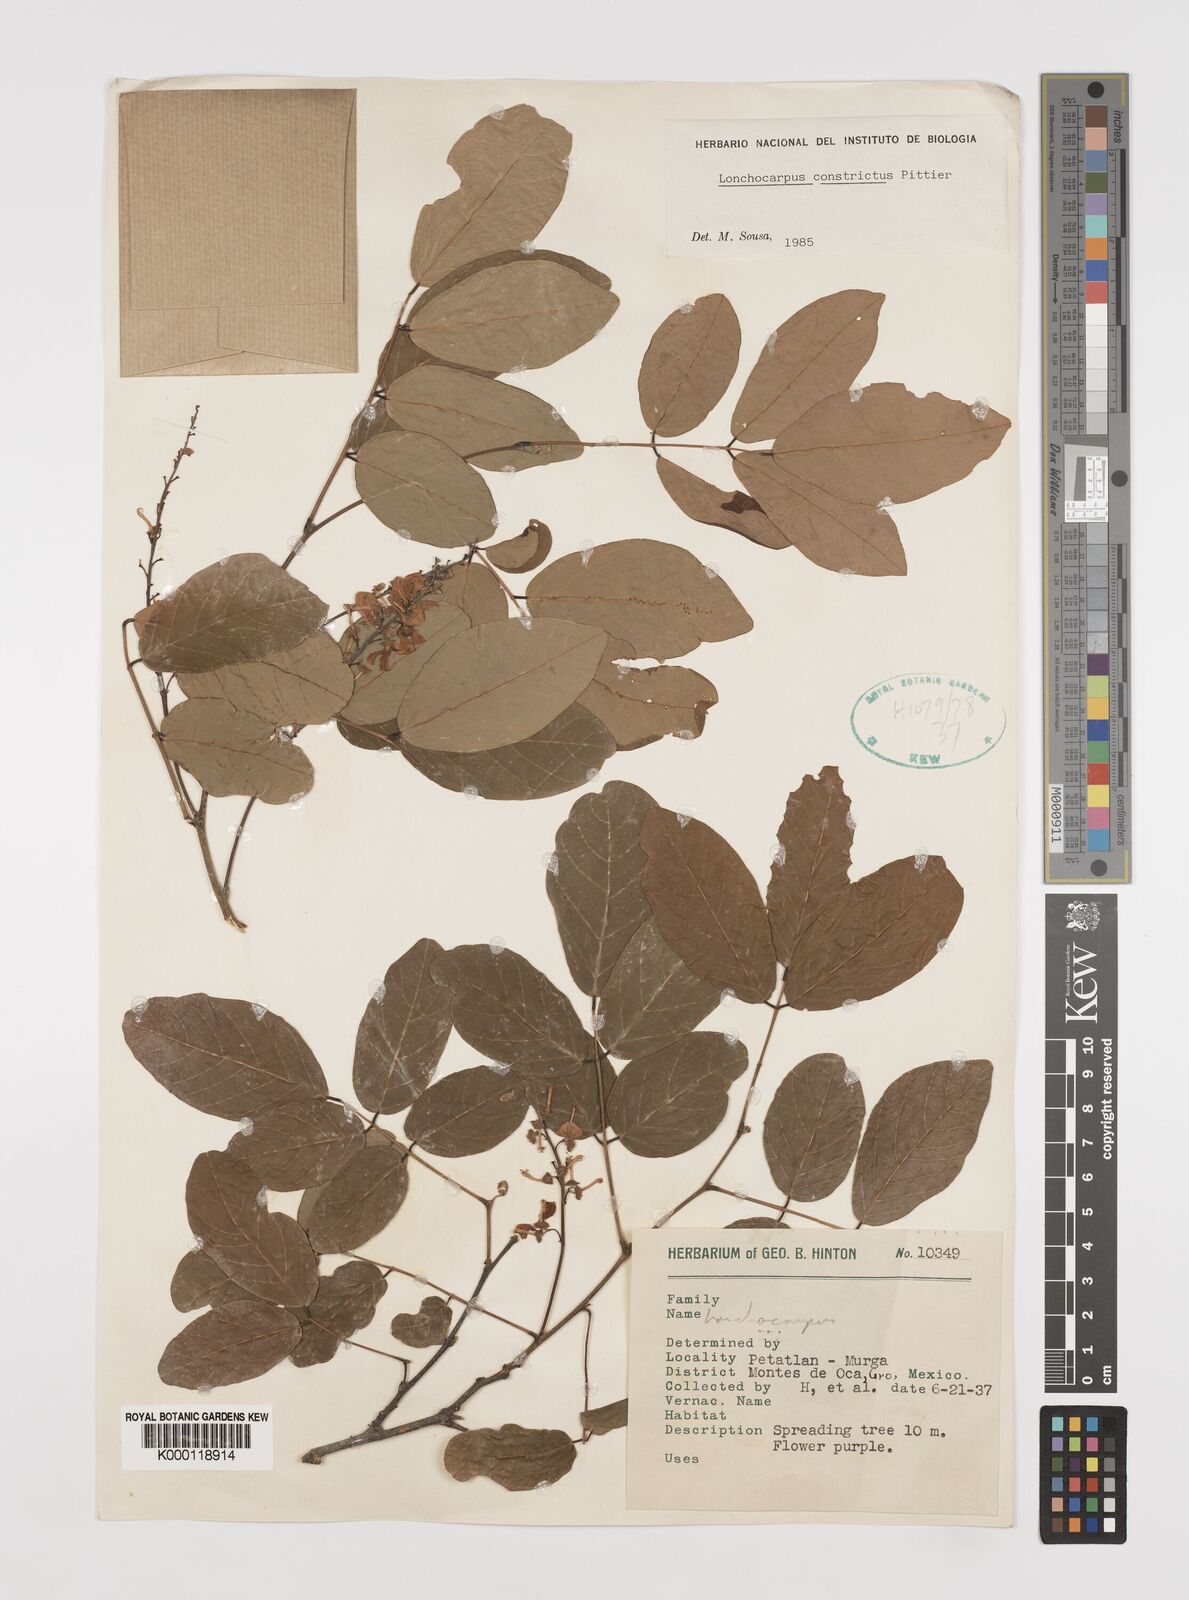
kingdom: Plantae
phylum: Tracheophyta
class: Magnoliopsida
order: Fabales
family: Fabaceae
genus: Lonchocarpus
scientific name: Lonchocarpus constrictus
